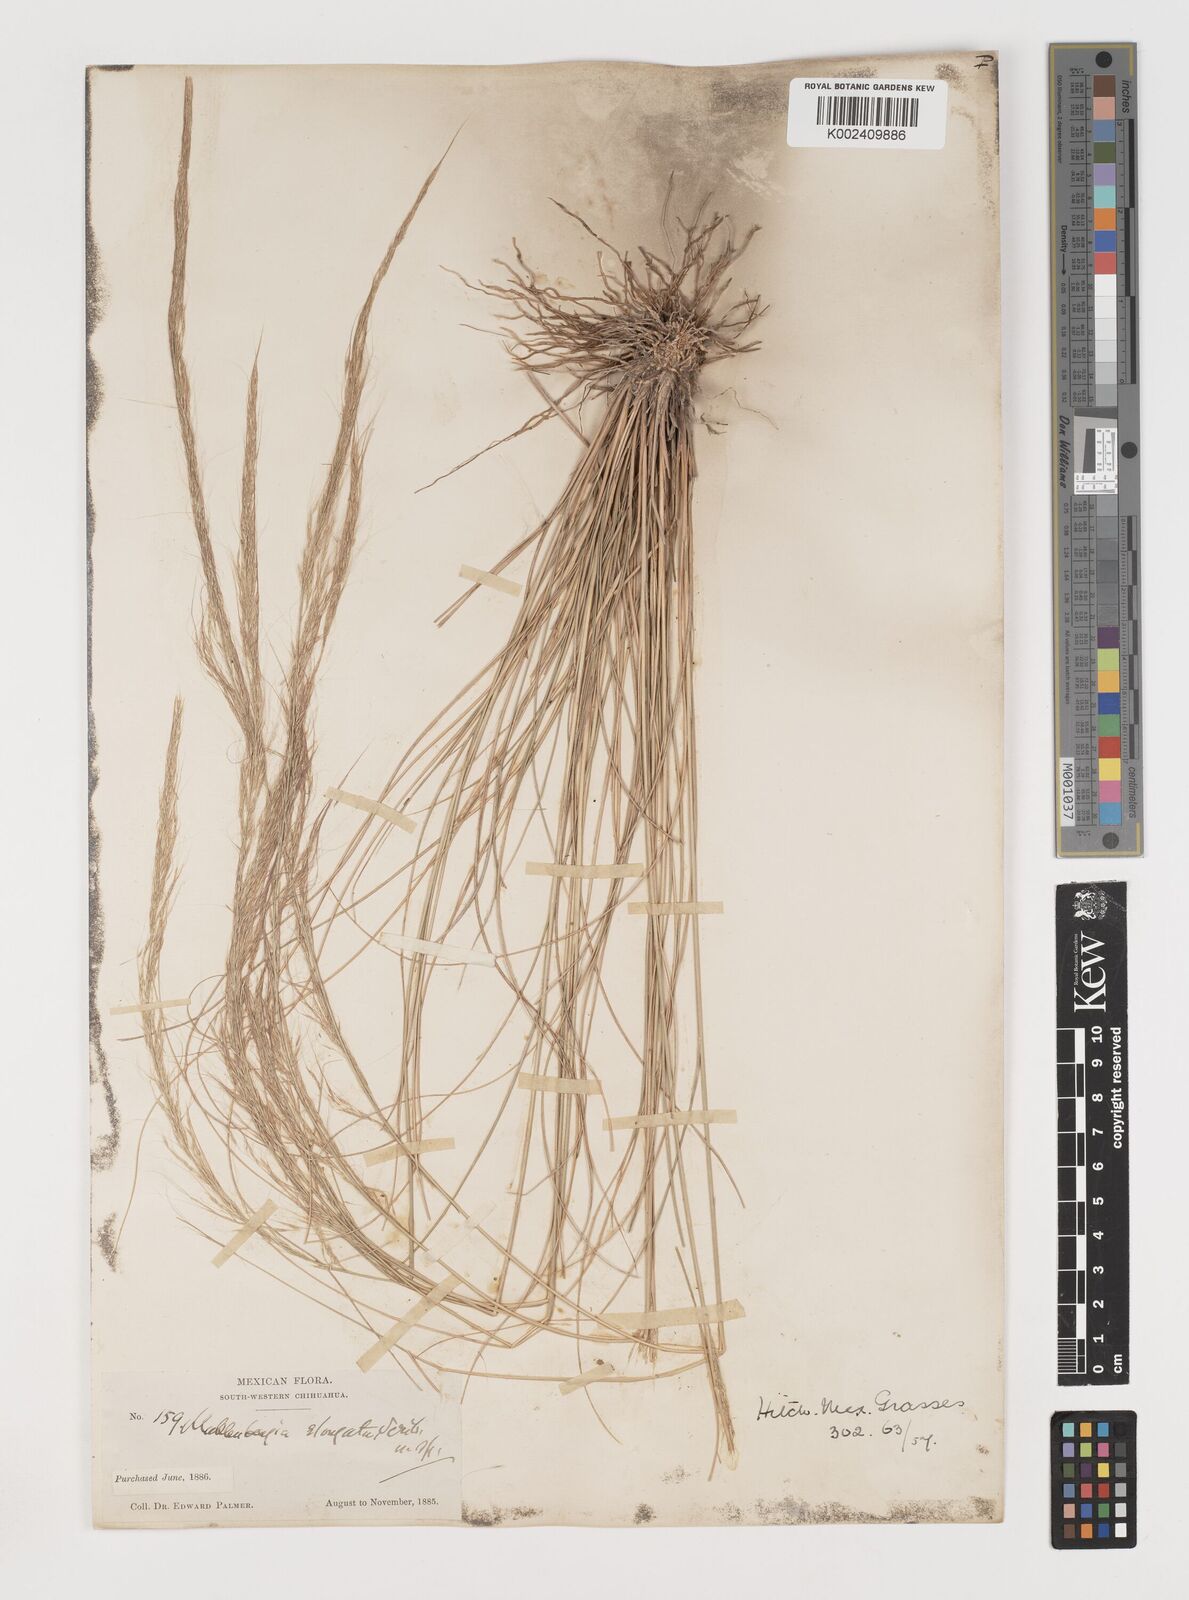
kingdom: Plantae
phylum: Tracheophyta
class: Liliopsida
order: Poales
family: Poaceae
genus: Muhlenbergia
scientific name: Muhlenbergia elongata
